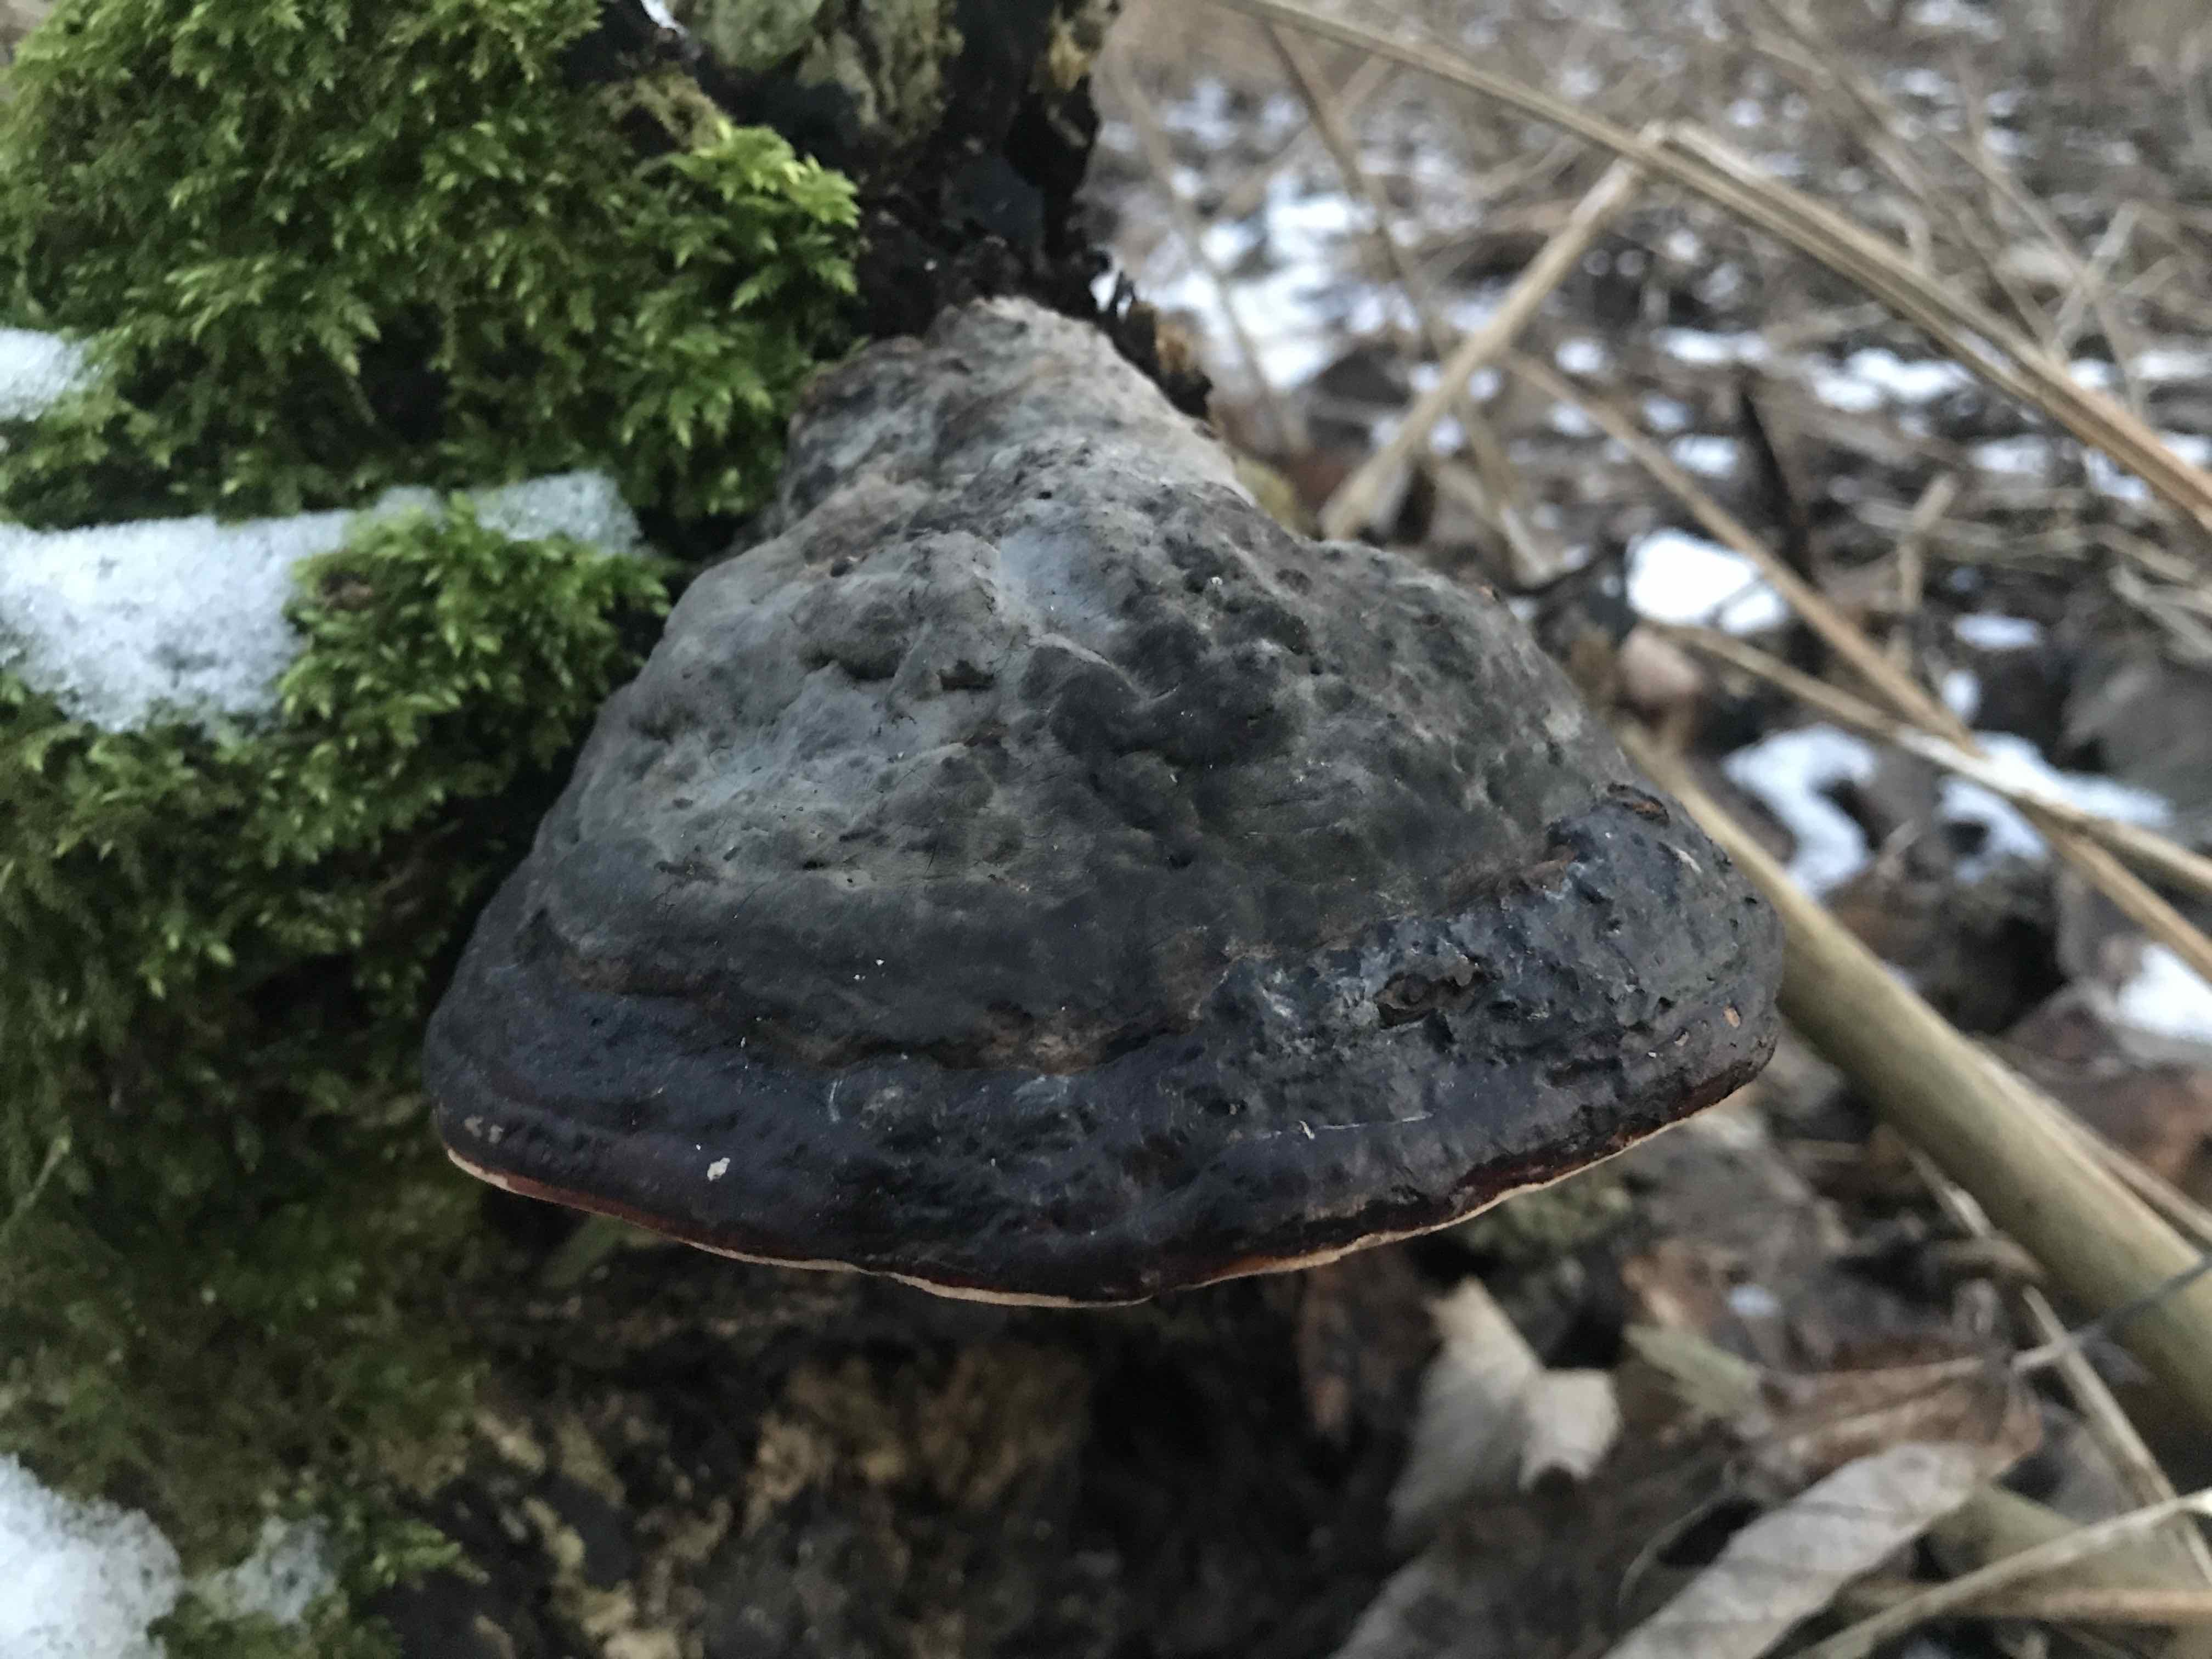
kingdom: Fungi
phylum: Basidiomycota
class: Agaricomycetes
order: Polyporales
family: Polyporaceae
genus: Fomes
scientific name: Fomes fomentarius
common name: tøndersvamp
